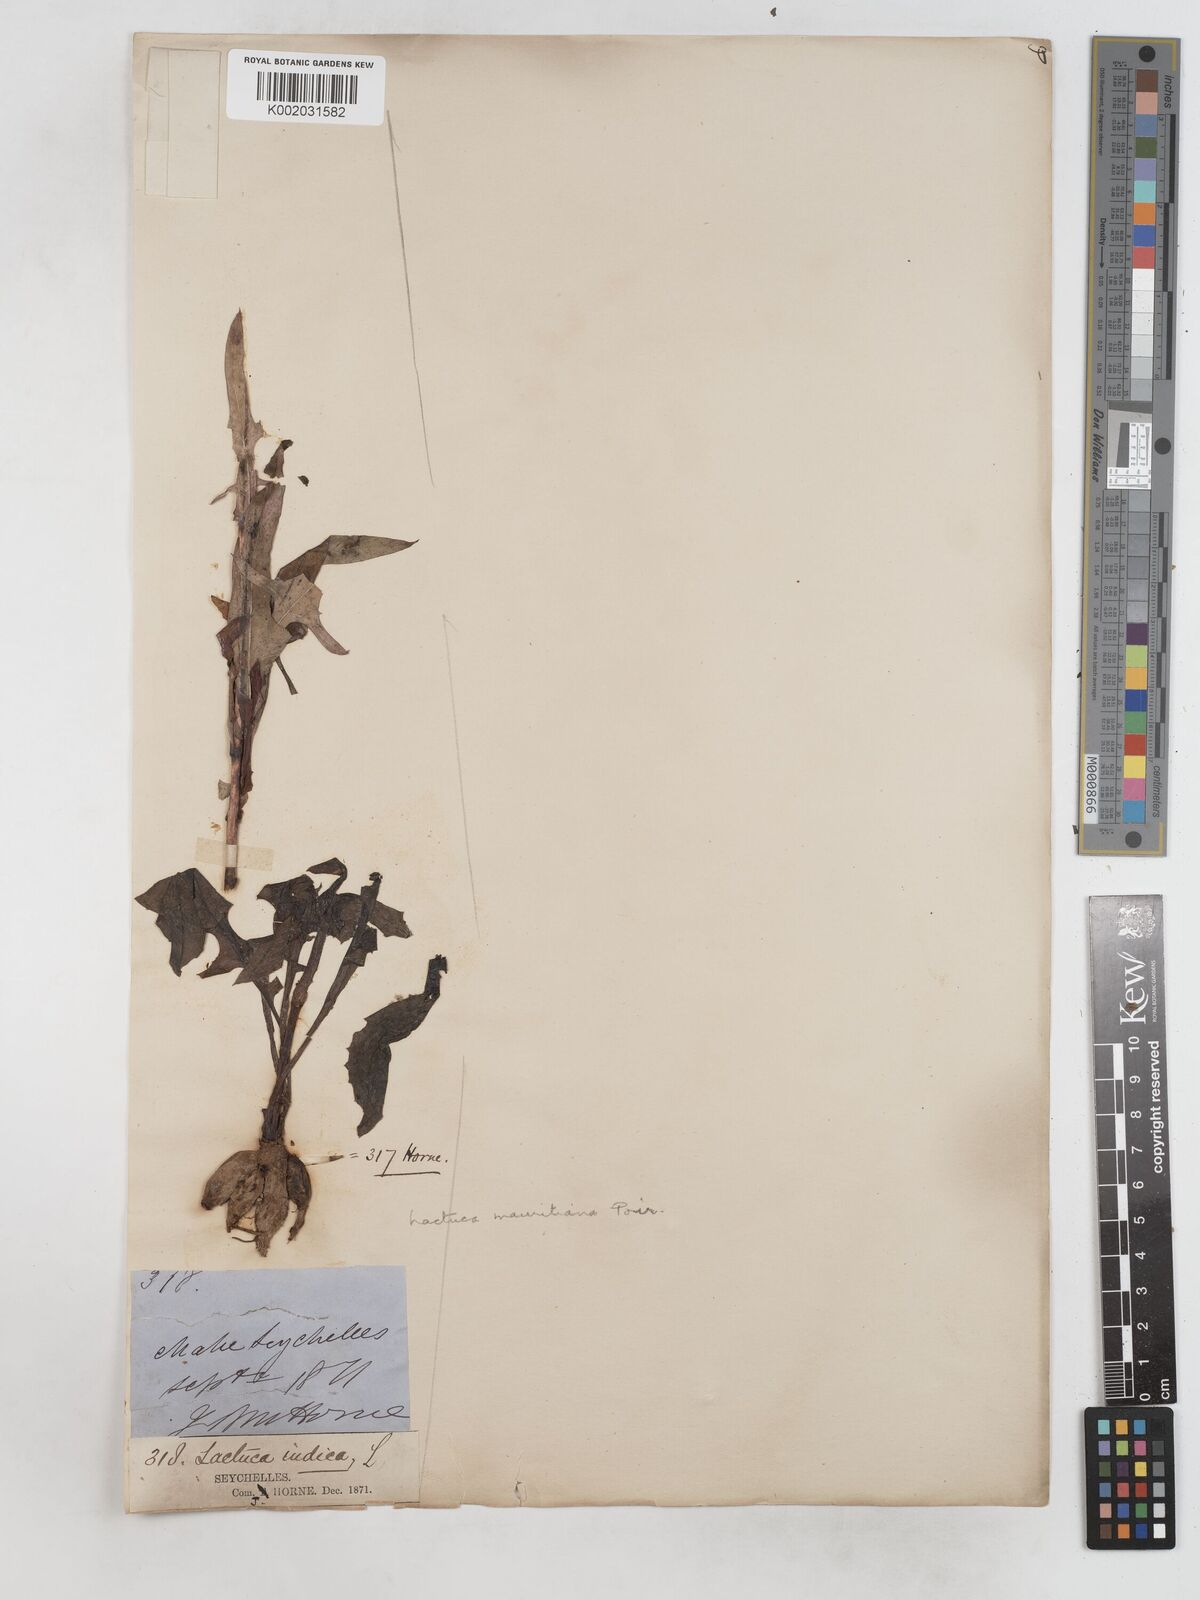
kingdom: Plantae
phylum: Tracheophyta
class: Magnoliopsida
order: Asterales
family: Asteraceae
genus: Lactuca
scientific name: Lactuca indica
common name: Wild lettuce
